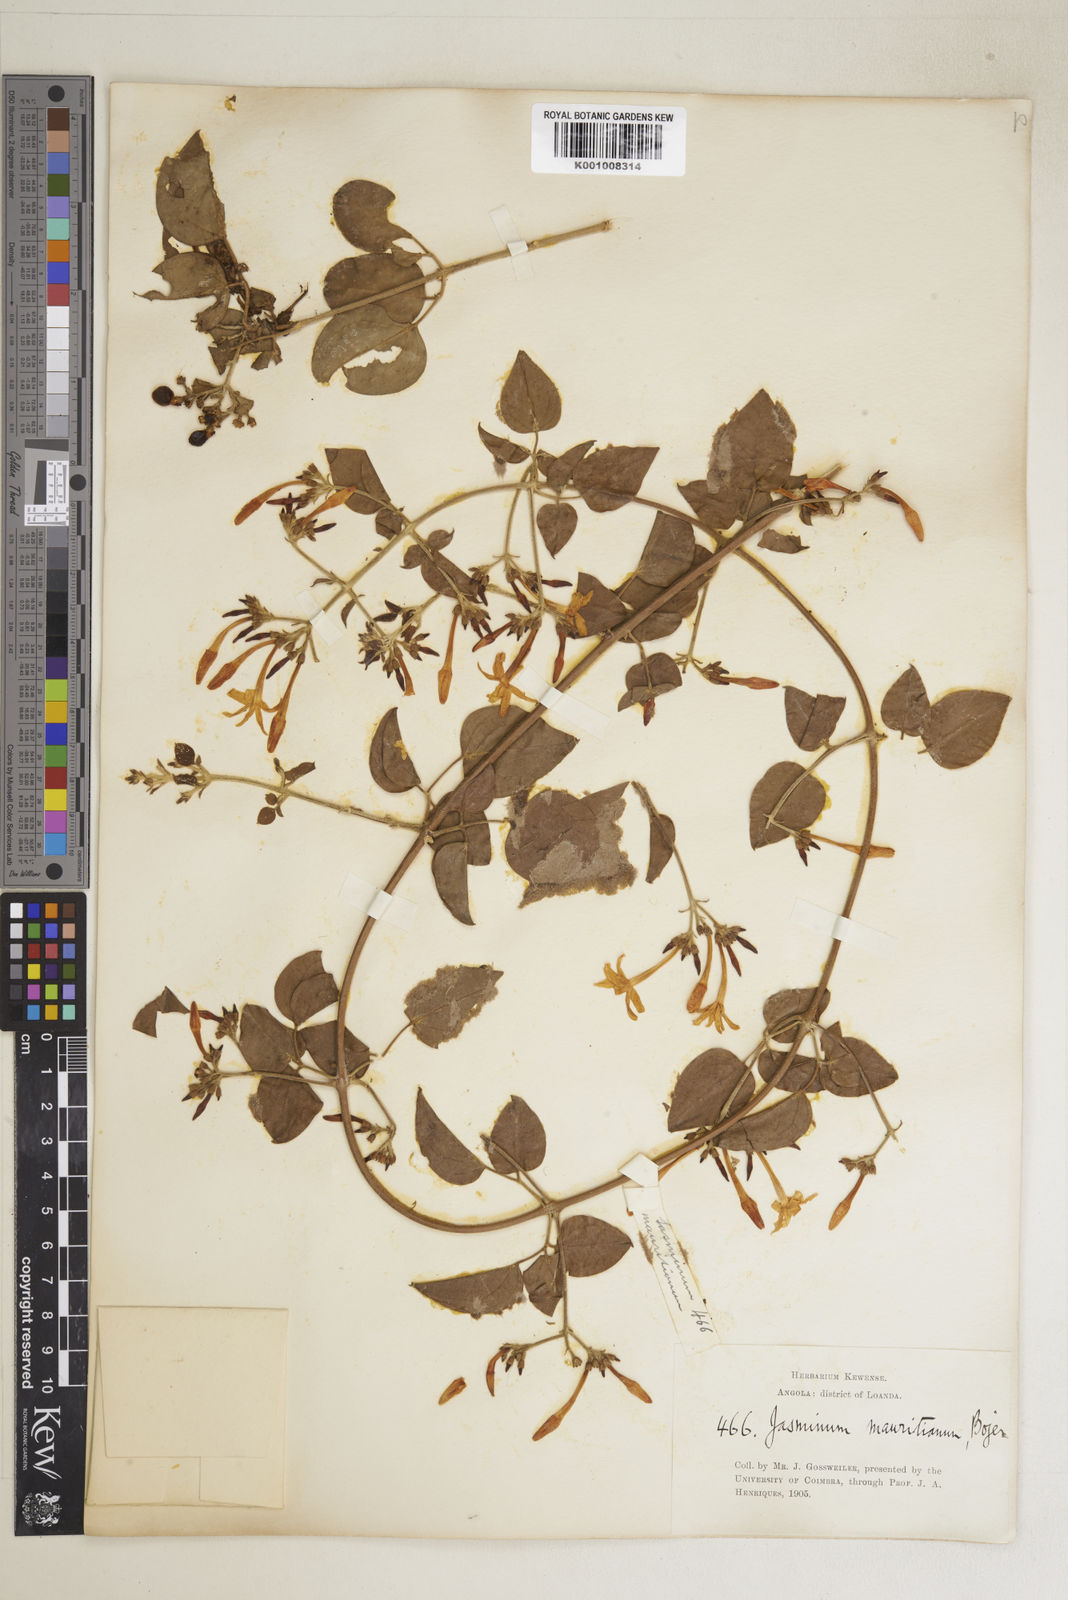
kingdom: Plantae
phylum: Tracheophyta
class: Magnoliopsida
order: Lamiales
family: Oleaceae
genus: Jasminum
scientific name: Jasminum fluminense
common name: Brazilian jasmine
